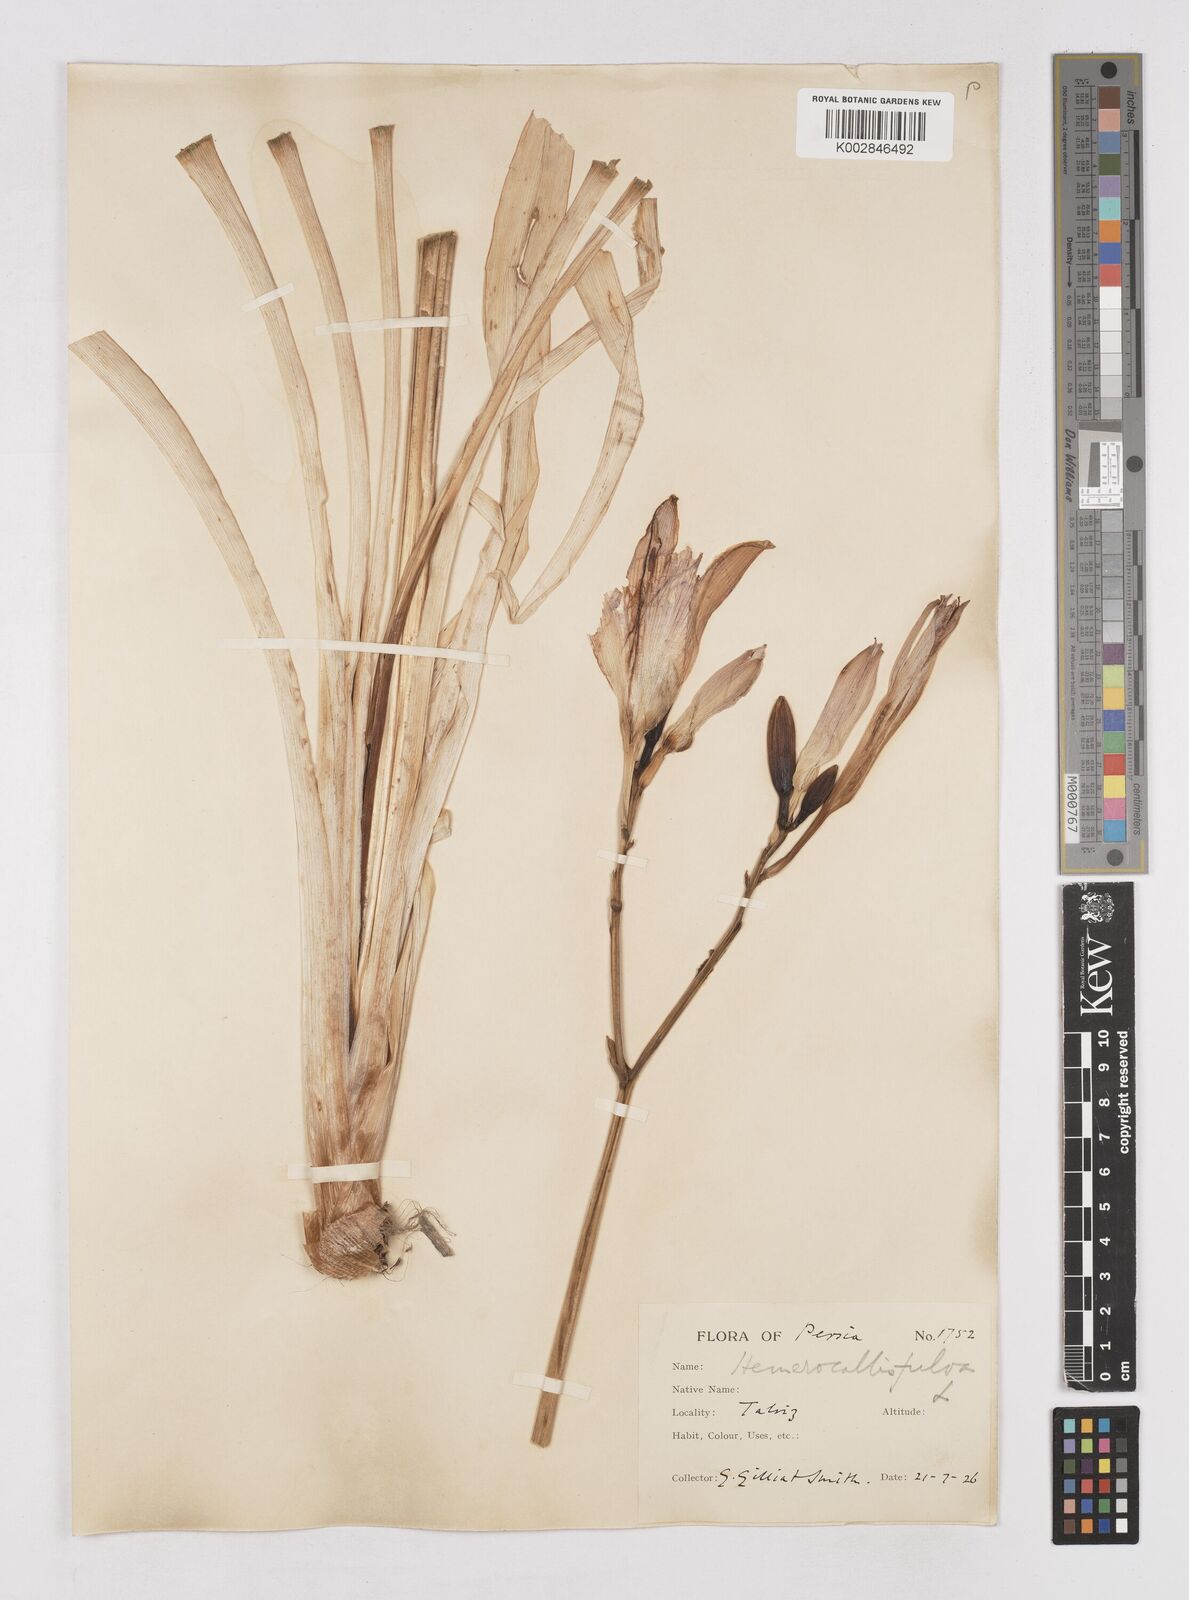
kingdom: Plantae
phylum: Tracheophyta
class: Liliopsida
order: Asparagales
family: Asphodelaceae
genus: Hemerocallis
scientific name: Hemerocallis lilioasphodelus
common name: Yellow day-lily
